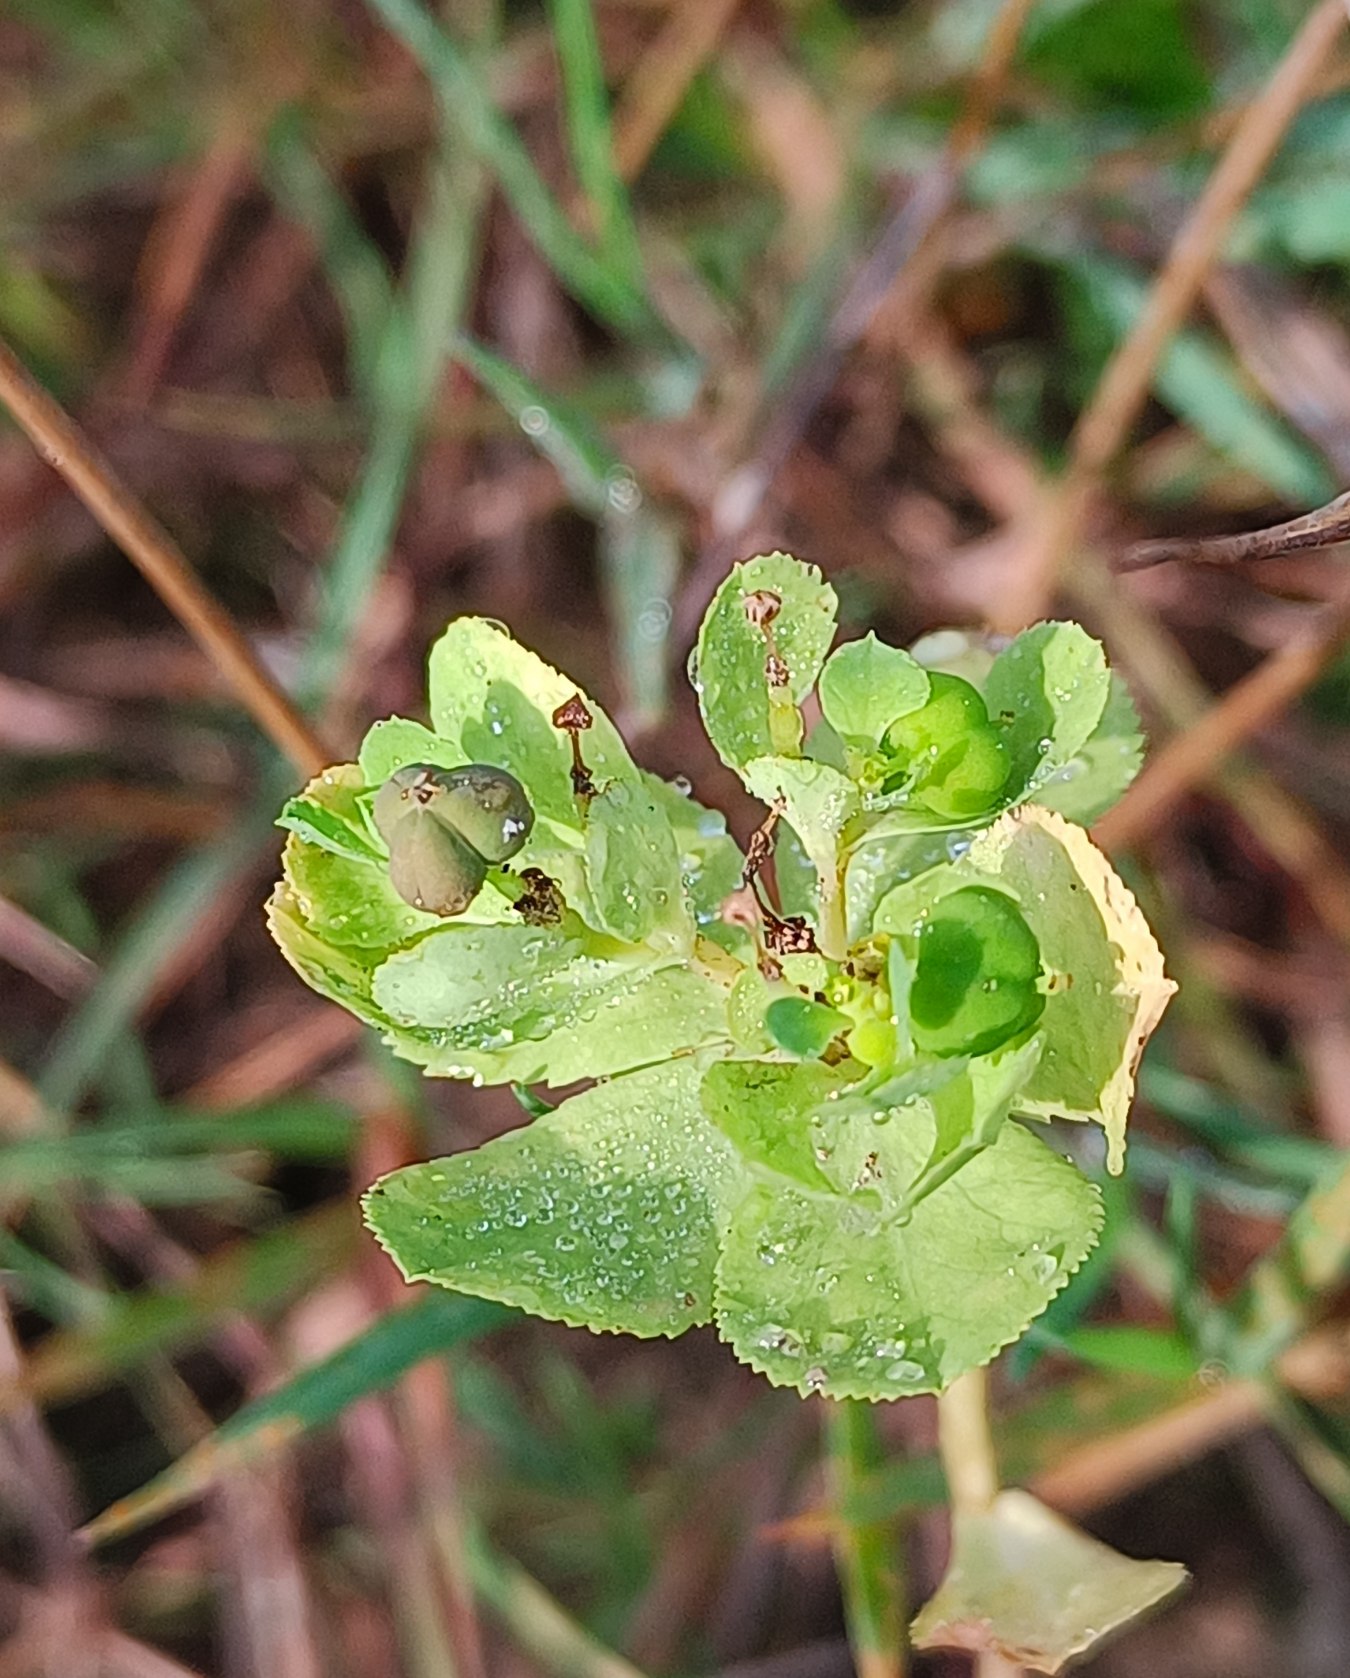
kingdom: Plantae
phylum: Tracheophyta
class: Magnoliopsida
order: Malpighiales
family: Euphorbiaceae
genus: Euphorbia
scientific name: Euphorbia helioscopia
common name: Skærm-vortemælk
